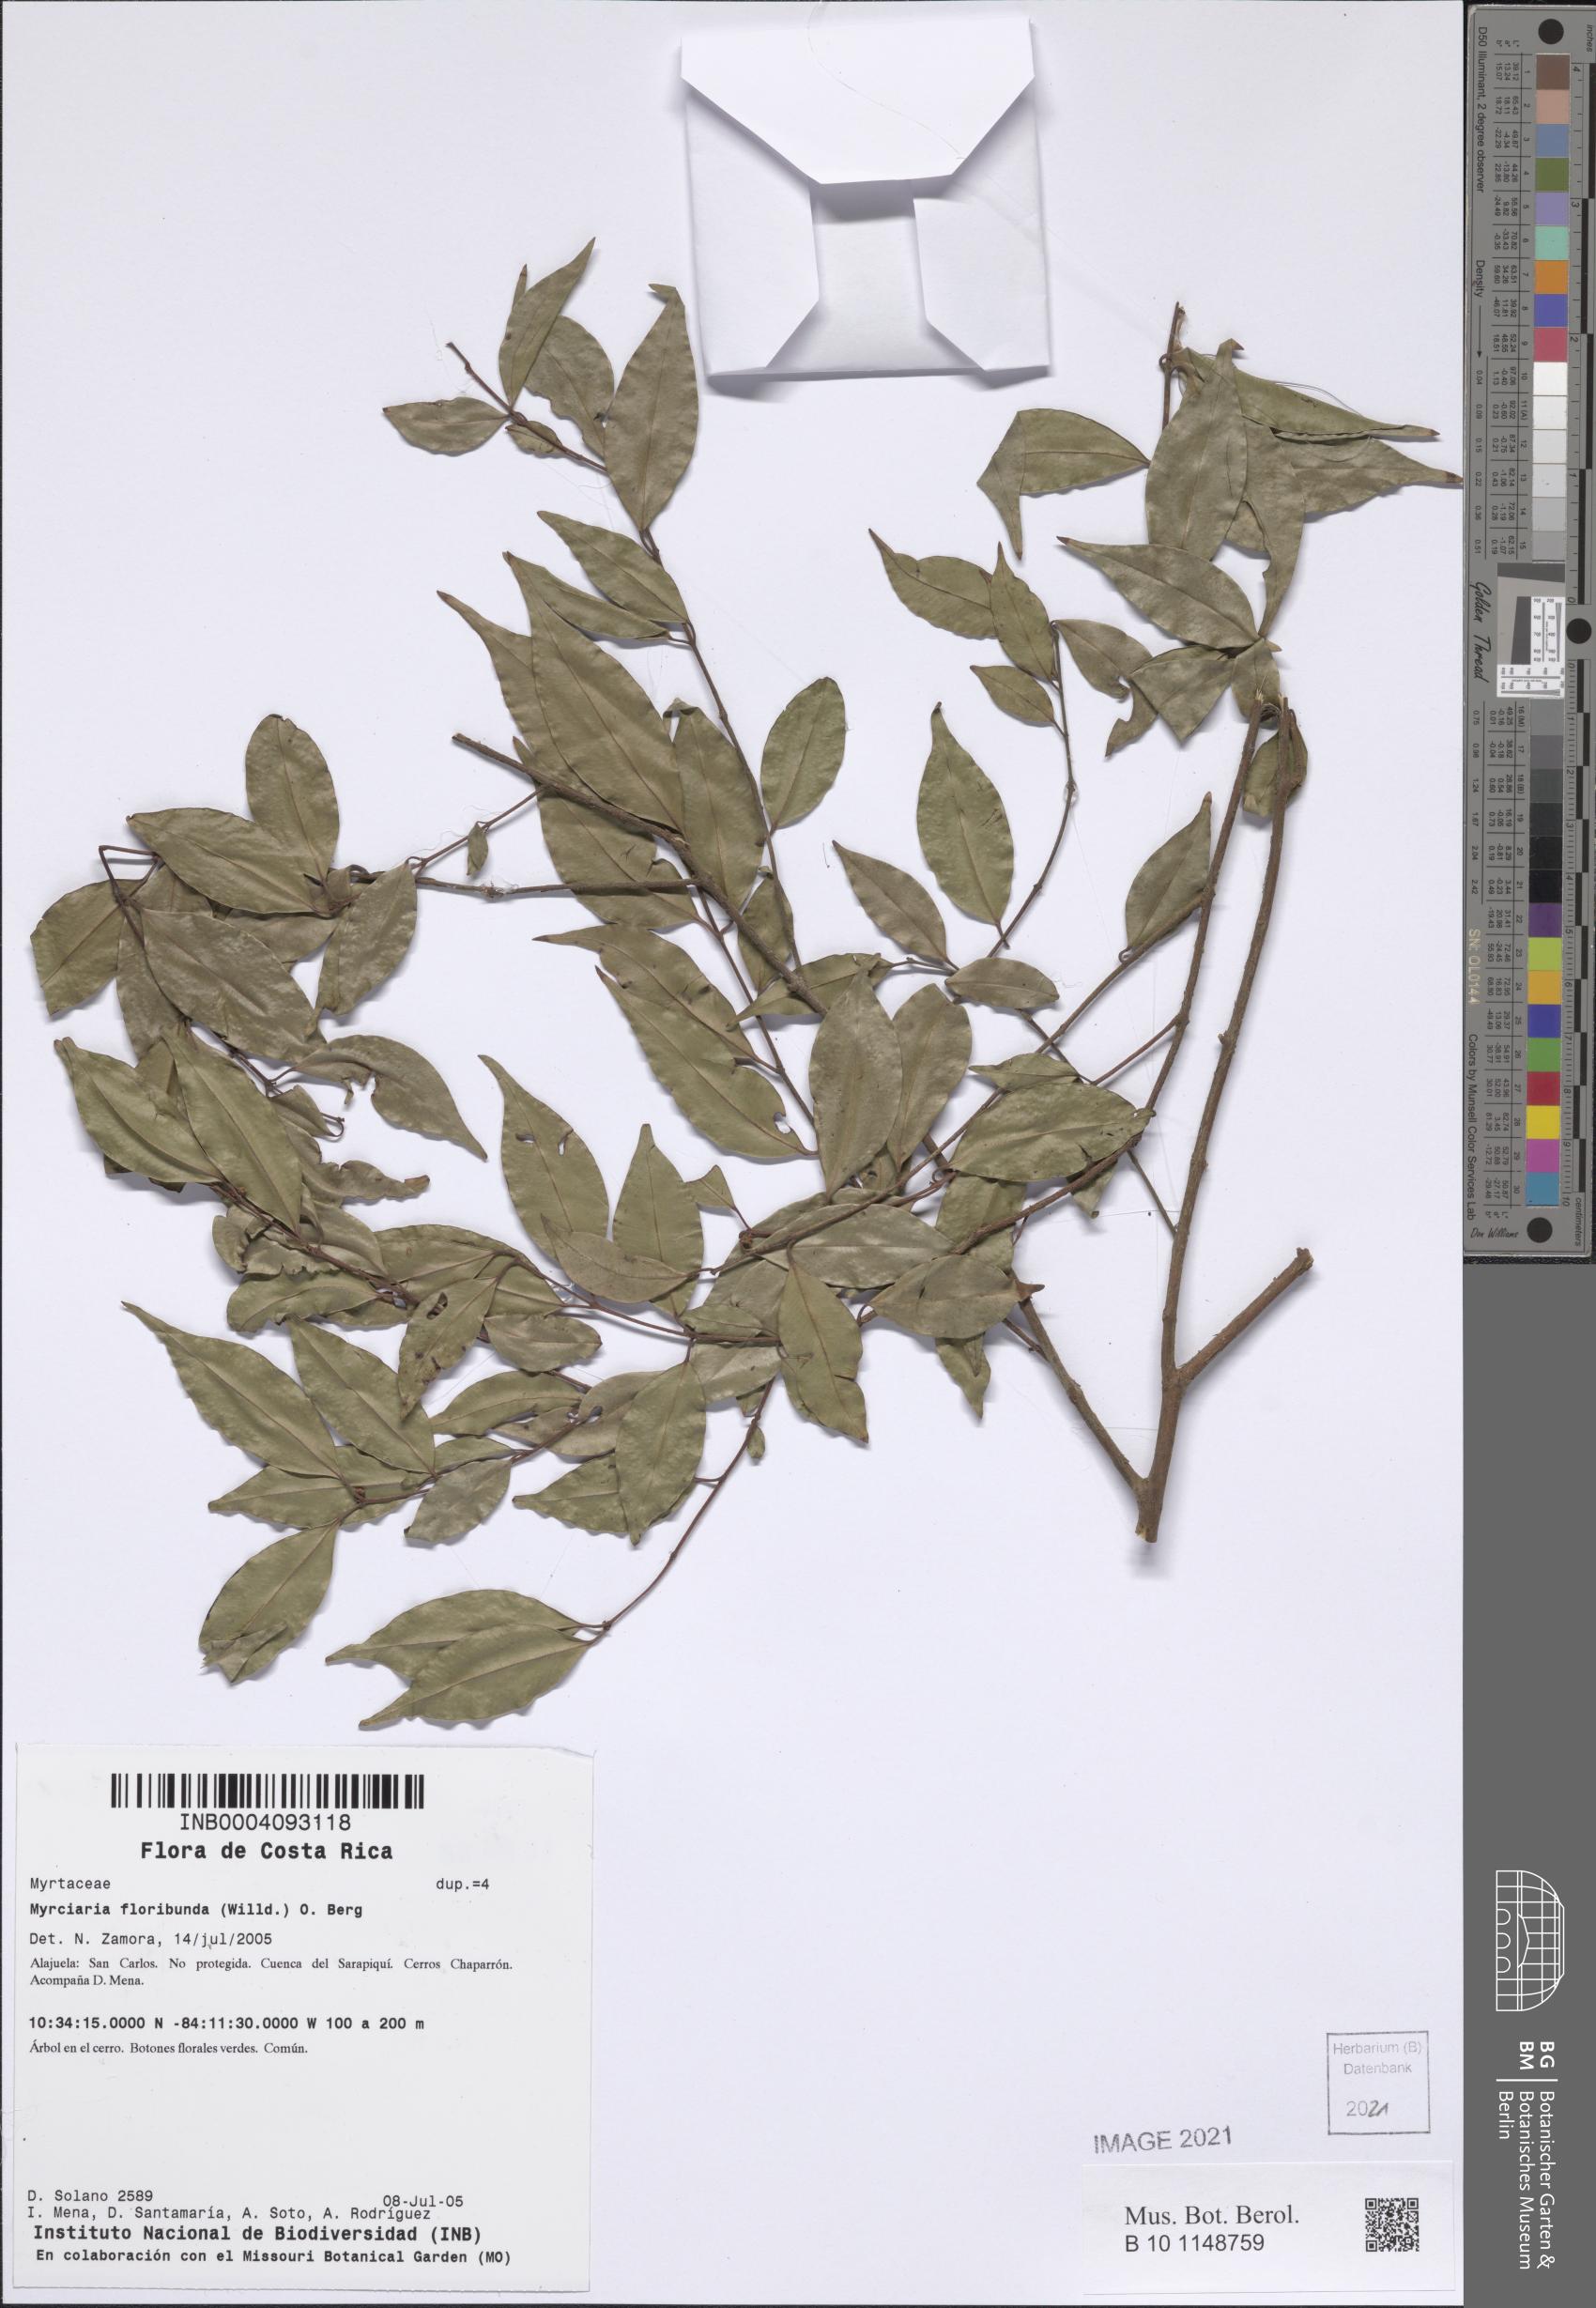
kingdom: Plantae
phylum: Tracheophyta
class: Magnoliopsida
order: Myrtales
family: Myrtaceae
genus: Myrciaria
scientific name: Myrciaria floribunda
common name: Guavaberry
